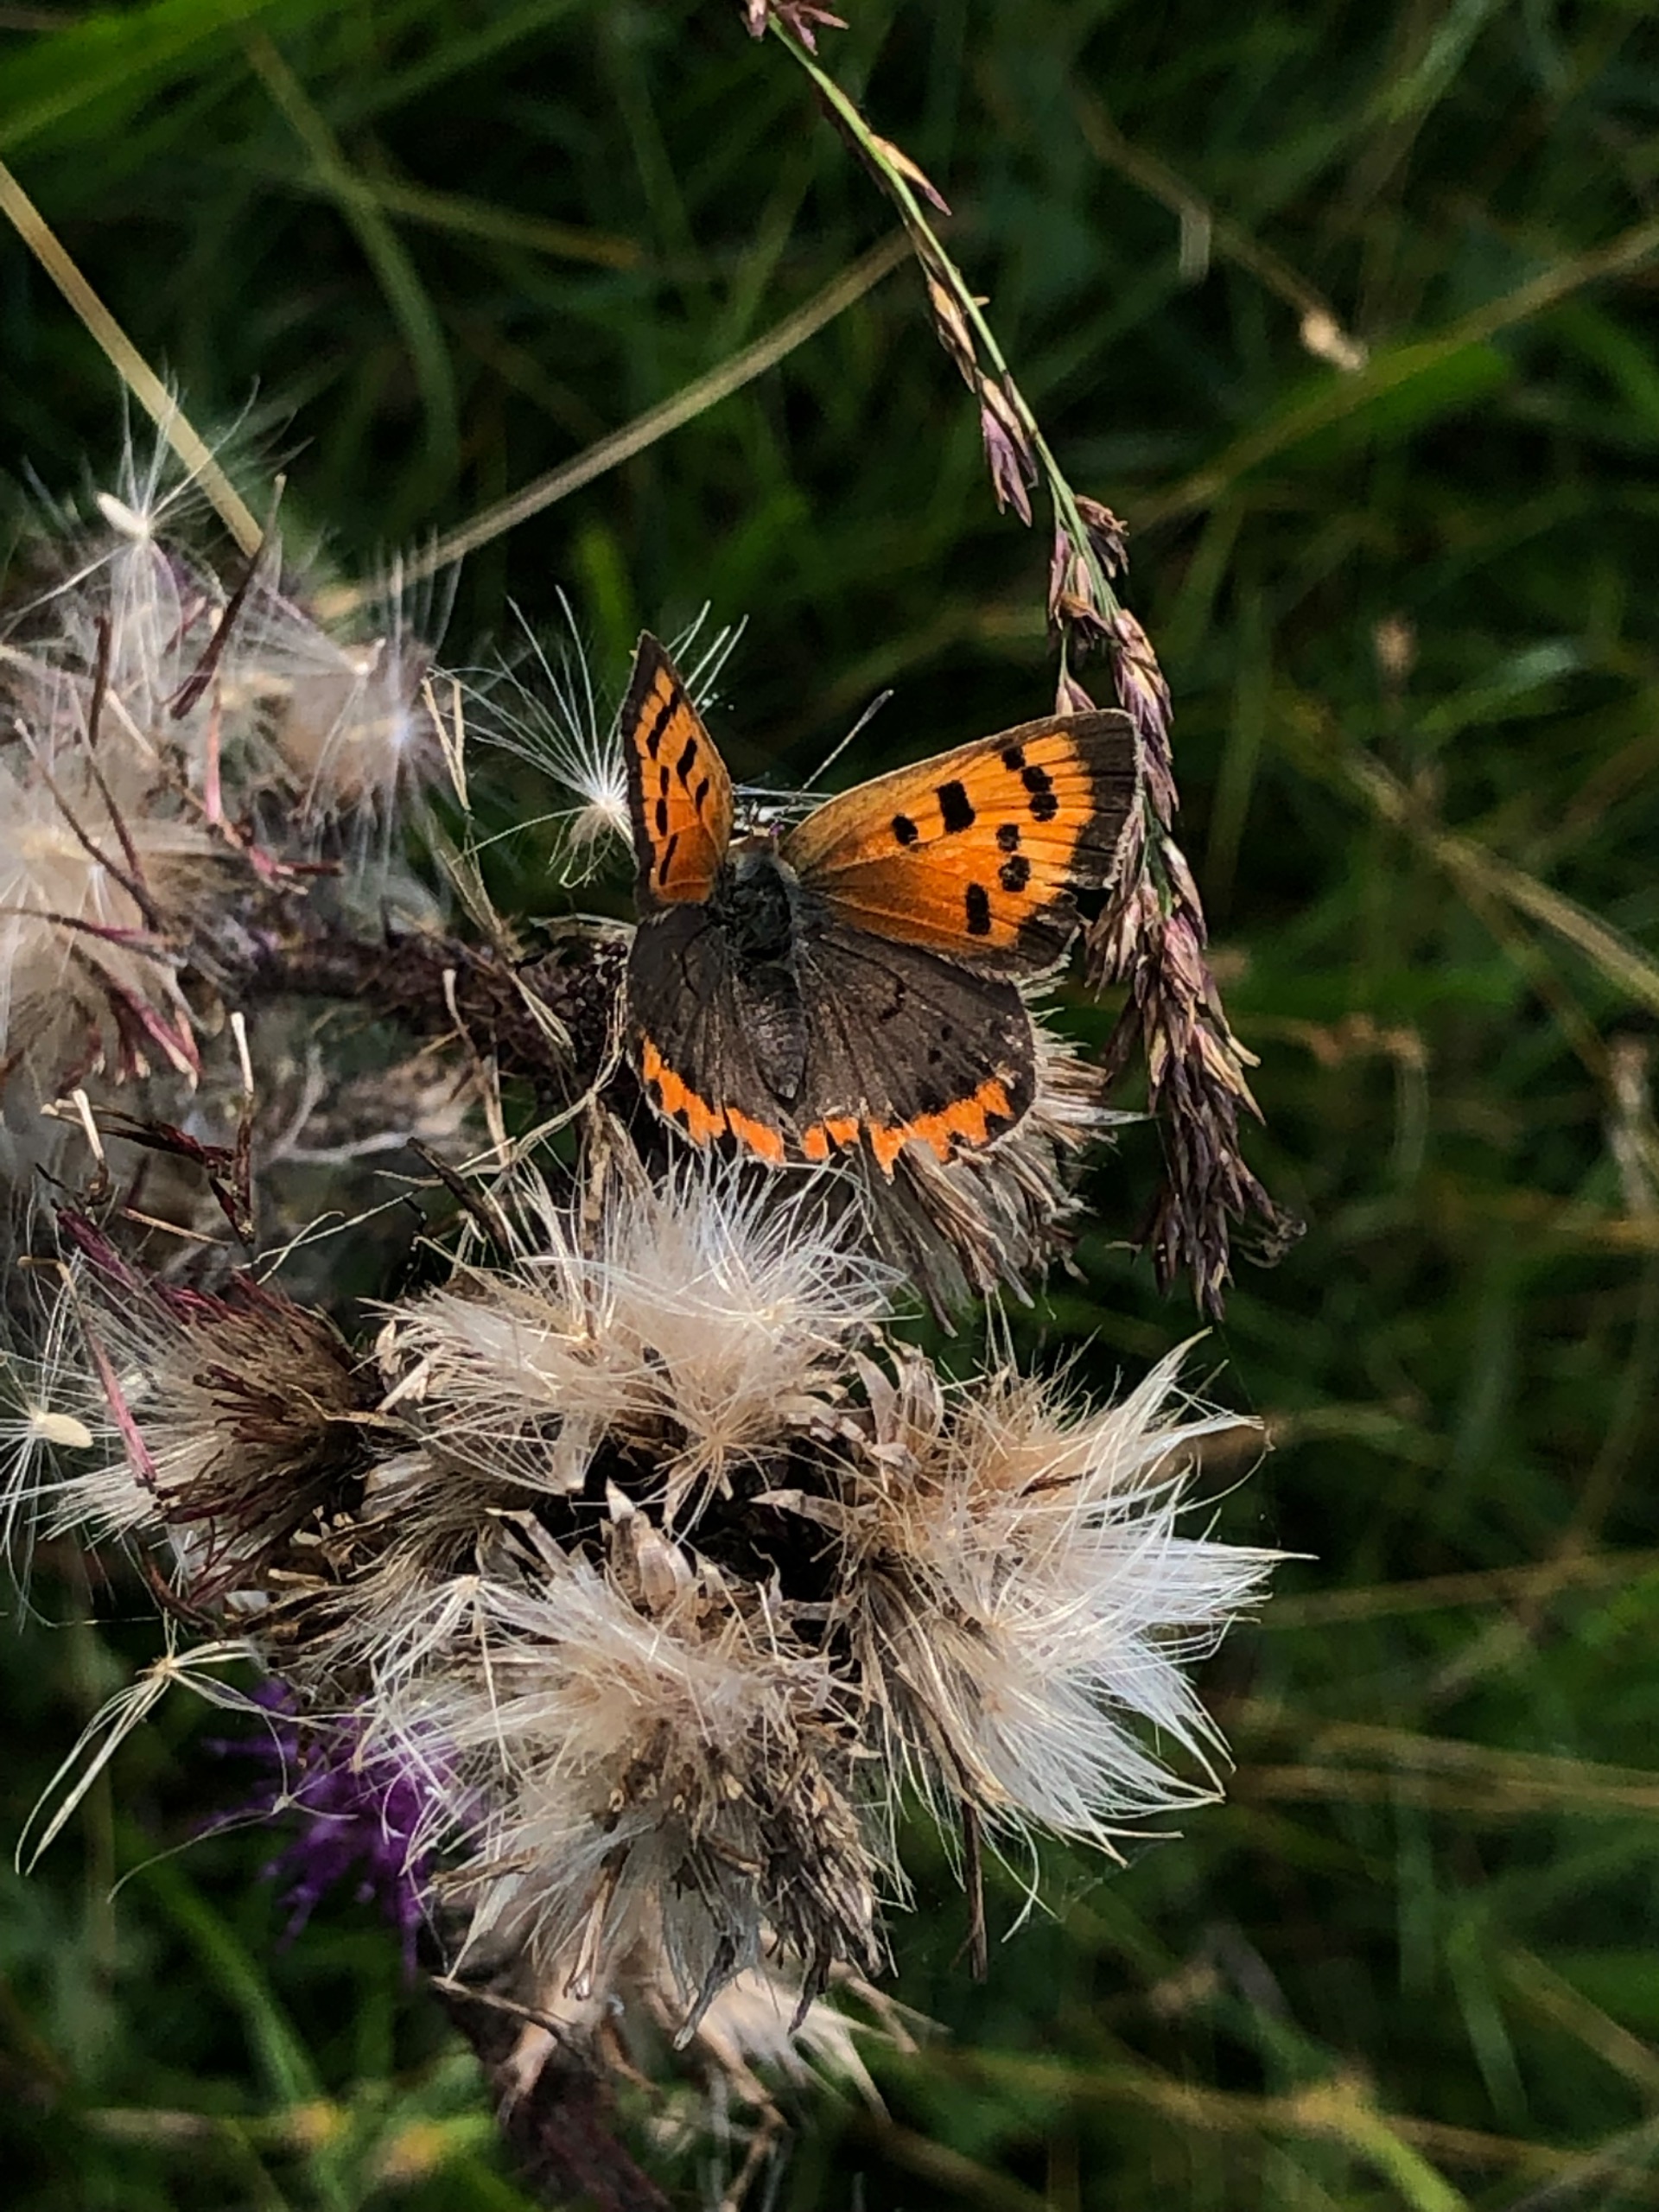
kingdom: Animalia
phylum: Arthropoda
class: Insecta
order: Lepidoptera
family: Lycaenidae
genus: Lycaena
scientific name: Lycaena phlaeas
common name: Lille ildfugl
